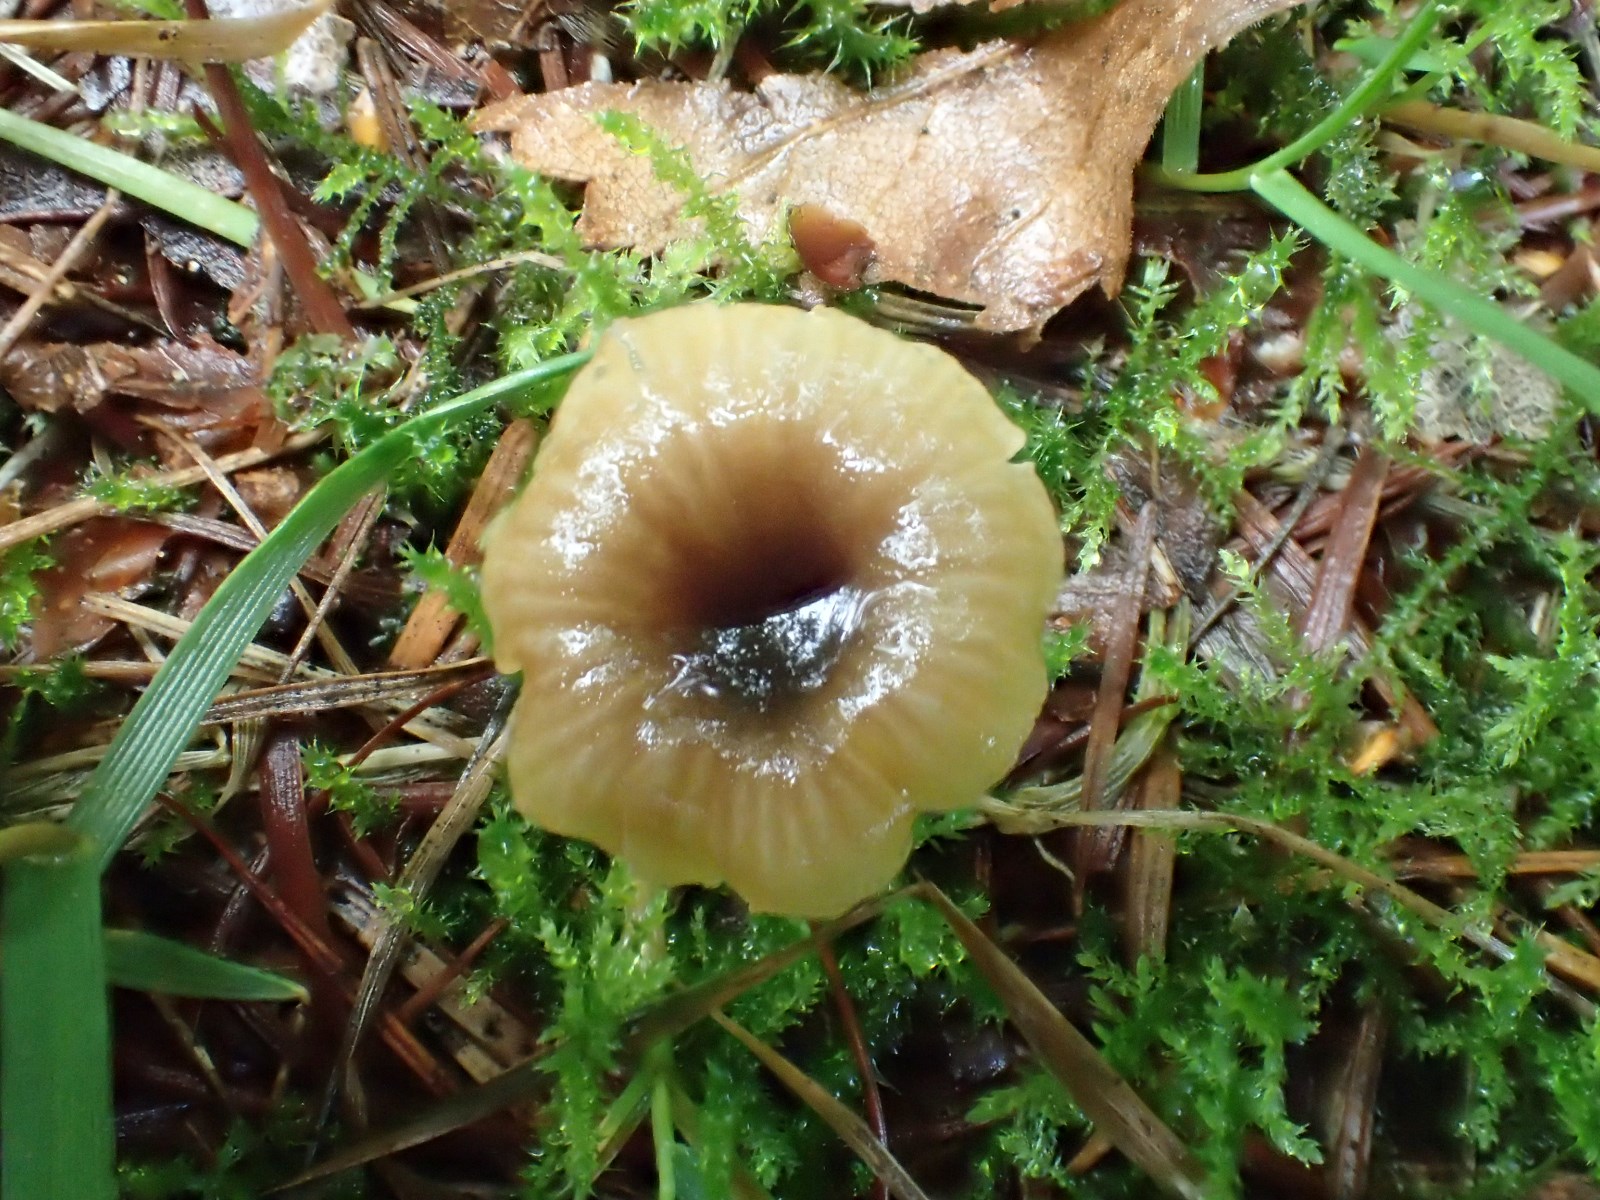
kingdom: Fungi
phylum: Basidiomycota
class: Agaricomycetes
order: Hymenochaetales
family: Rickenellaceae
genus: Rickenella
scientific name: Rickenella swartzii
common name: finstokket mosnavlehat
